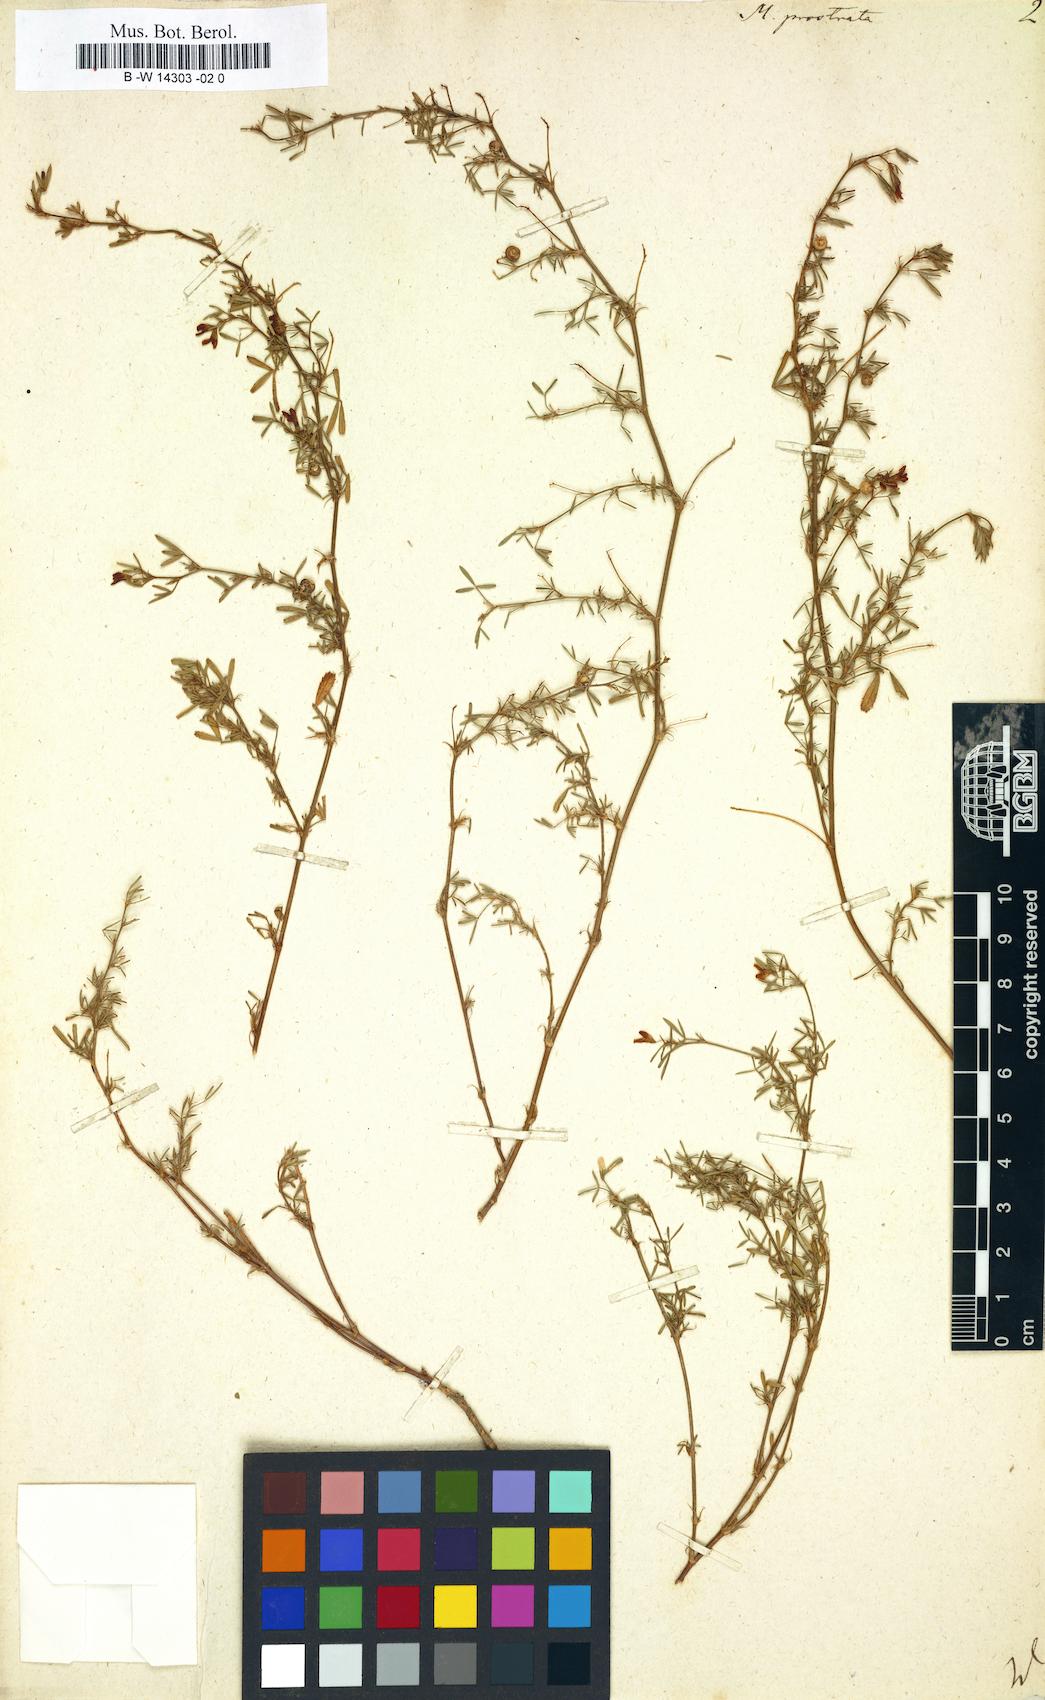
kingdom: Plantae
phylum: Tracheophyta
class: Magnoliopsida
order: Fabales
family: Fabaceae
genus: Medicago
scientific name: Medicago prostrata
